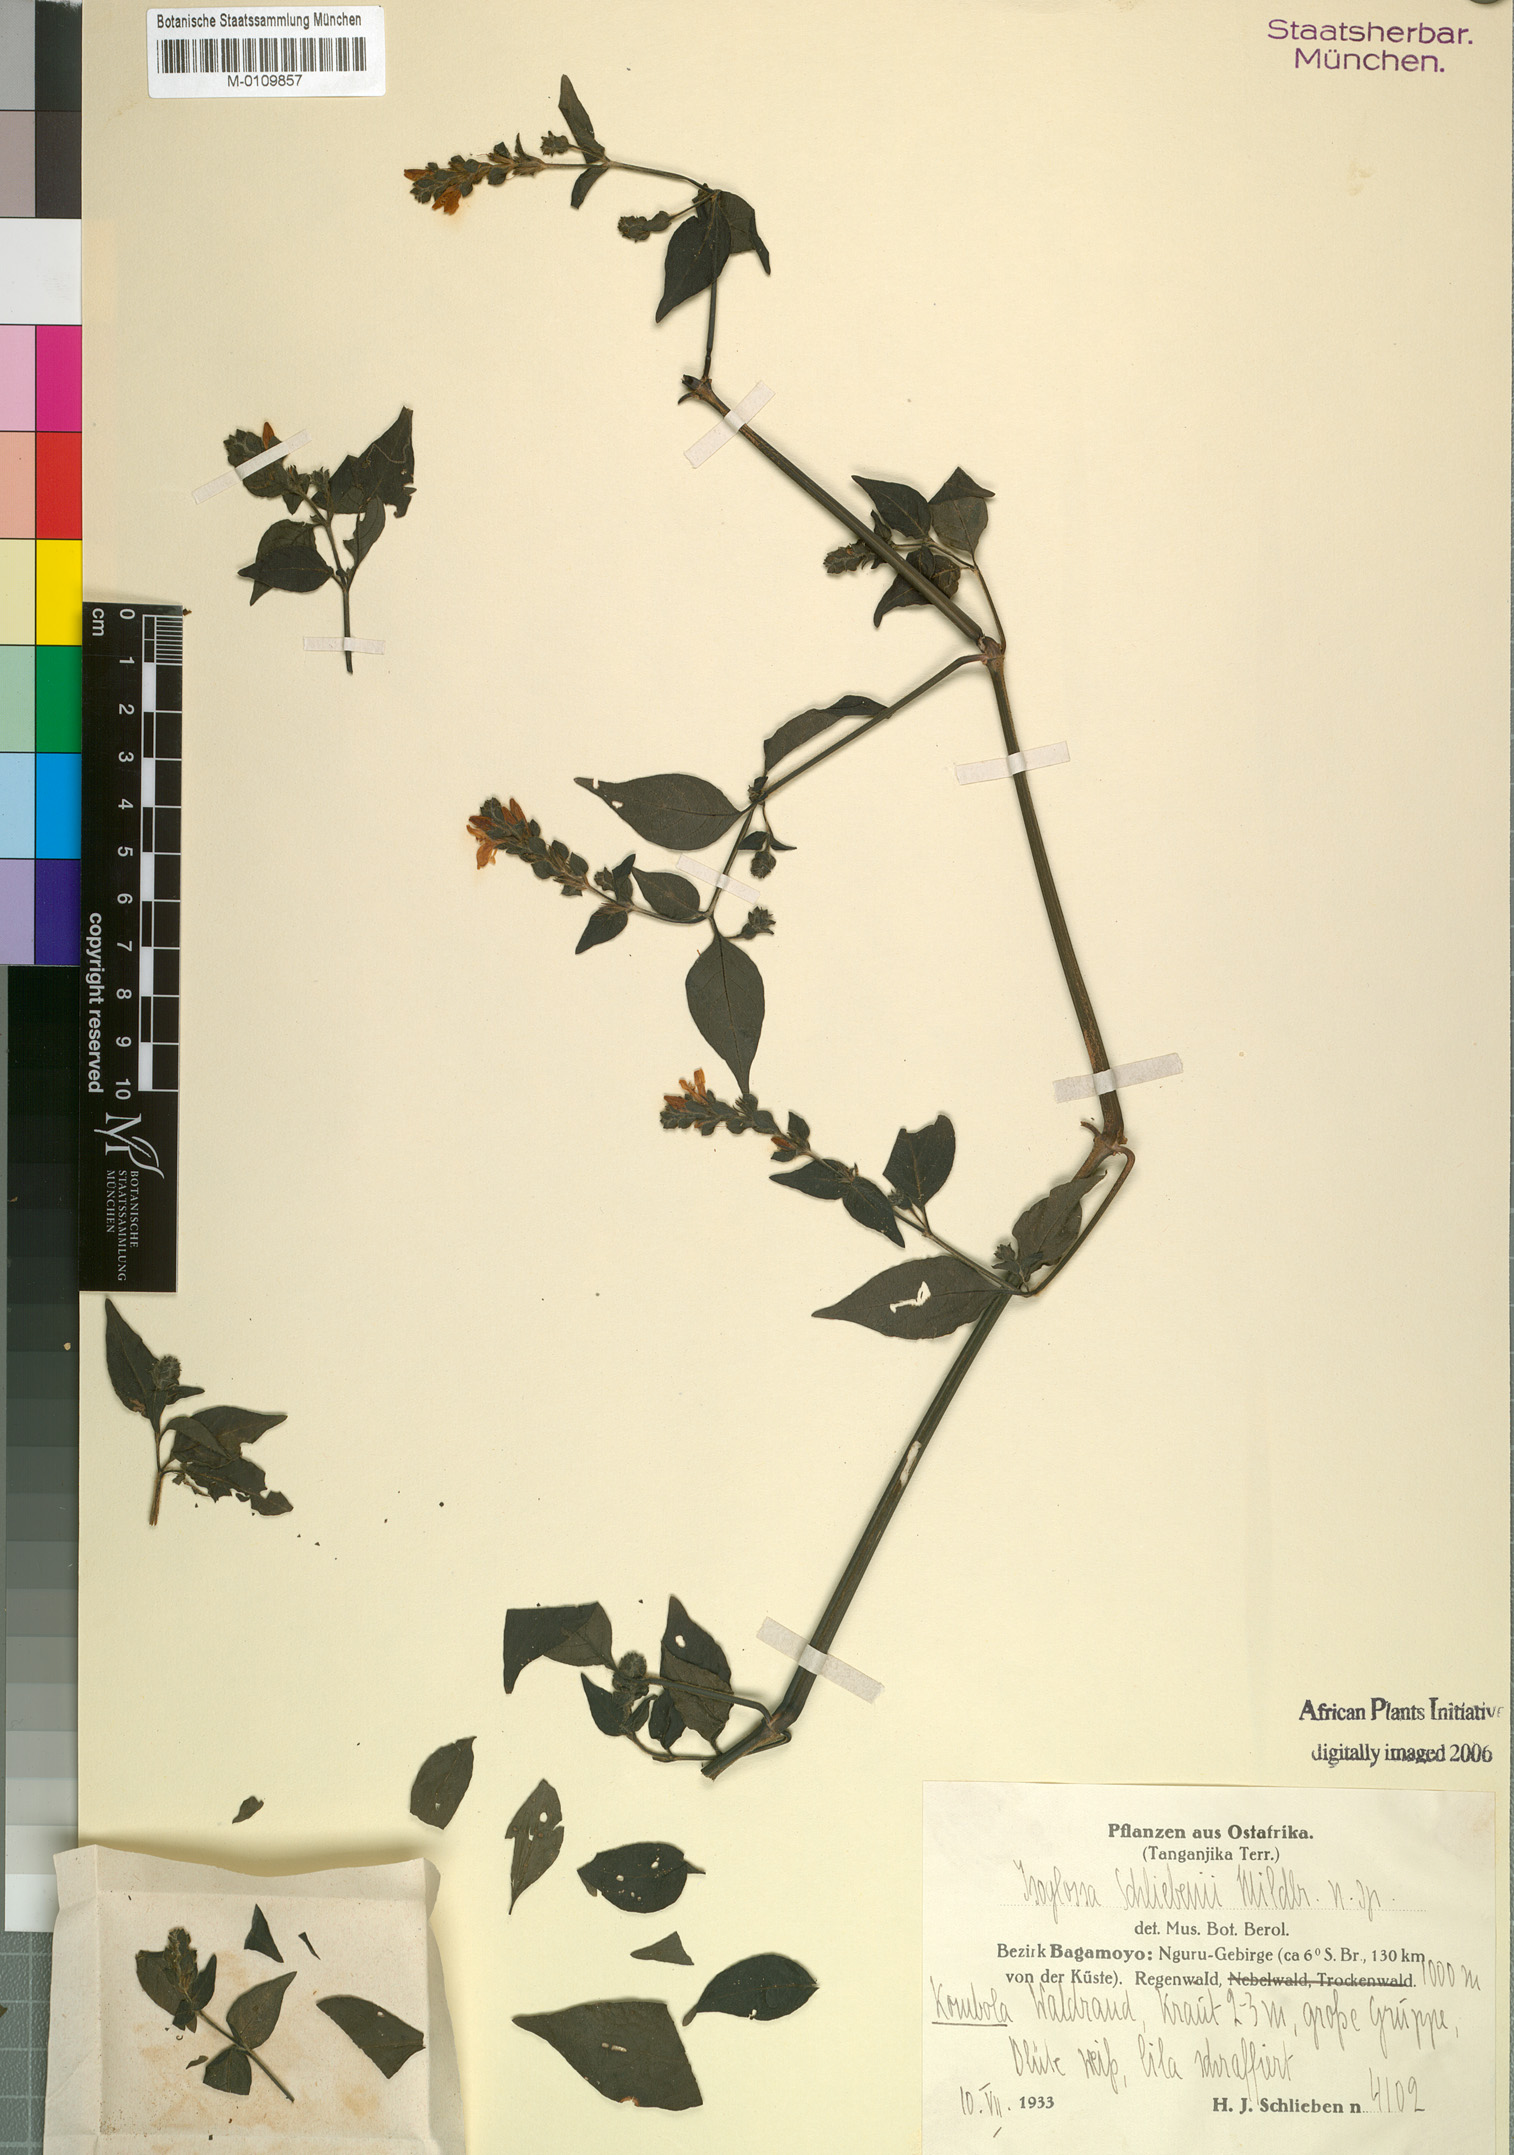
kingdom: Plantae
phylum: Tracheophyta
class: Magnoliopsida
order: Lamiales
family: Acanthaceae
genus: Isoglossa
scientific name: Isoglossa substrobilina
